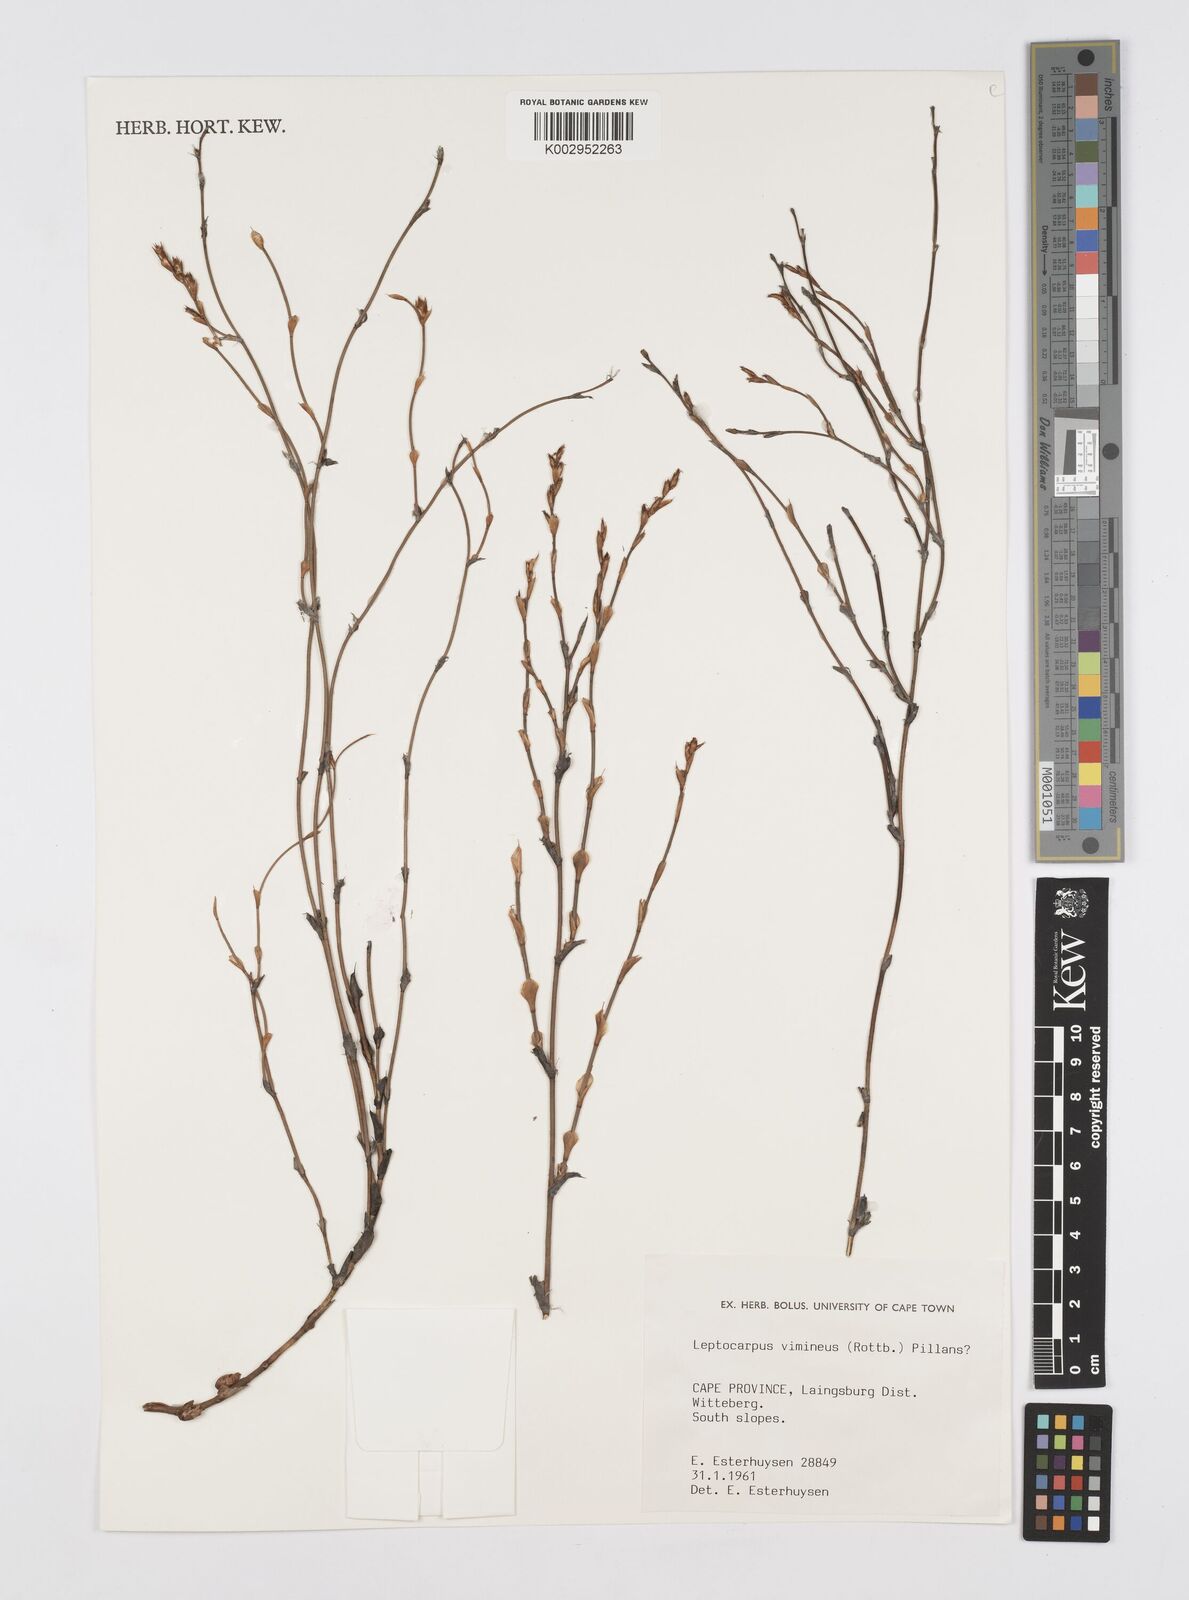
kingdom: Plantae
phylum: Tracheophyta
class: Liliopsida
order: Poales
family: Restionaceae
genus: Restio
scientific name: Restio vimineus
